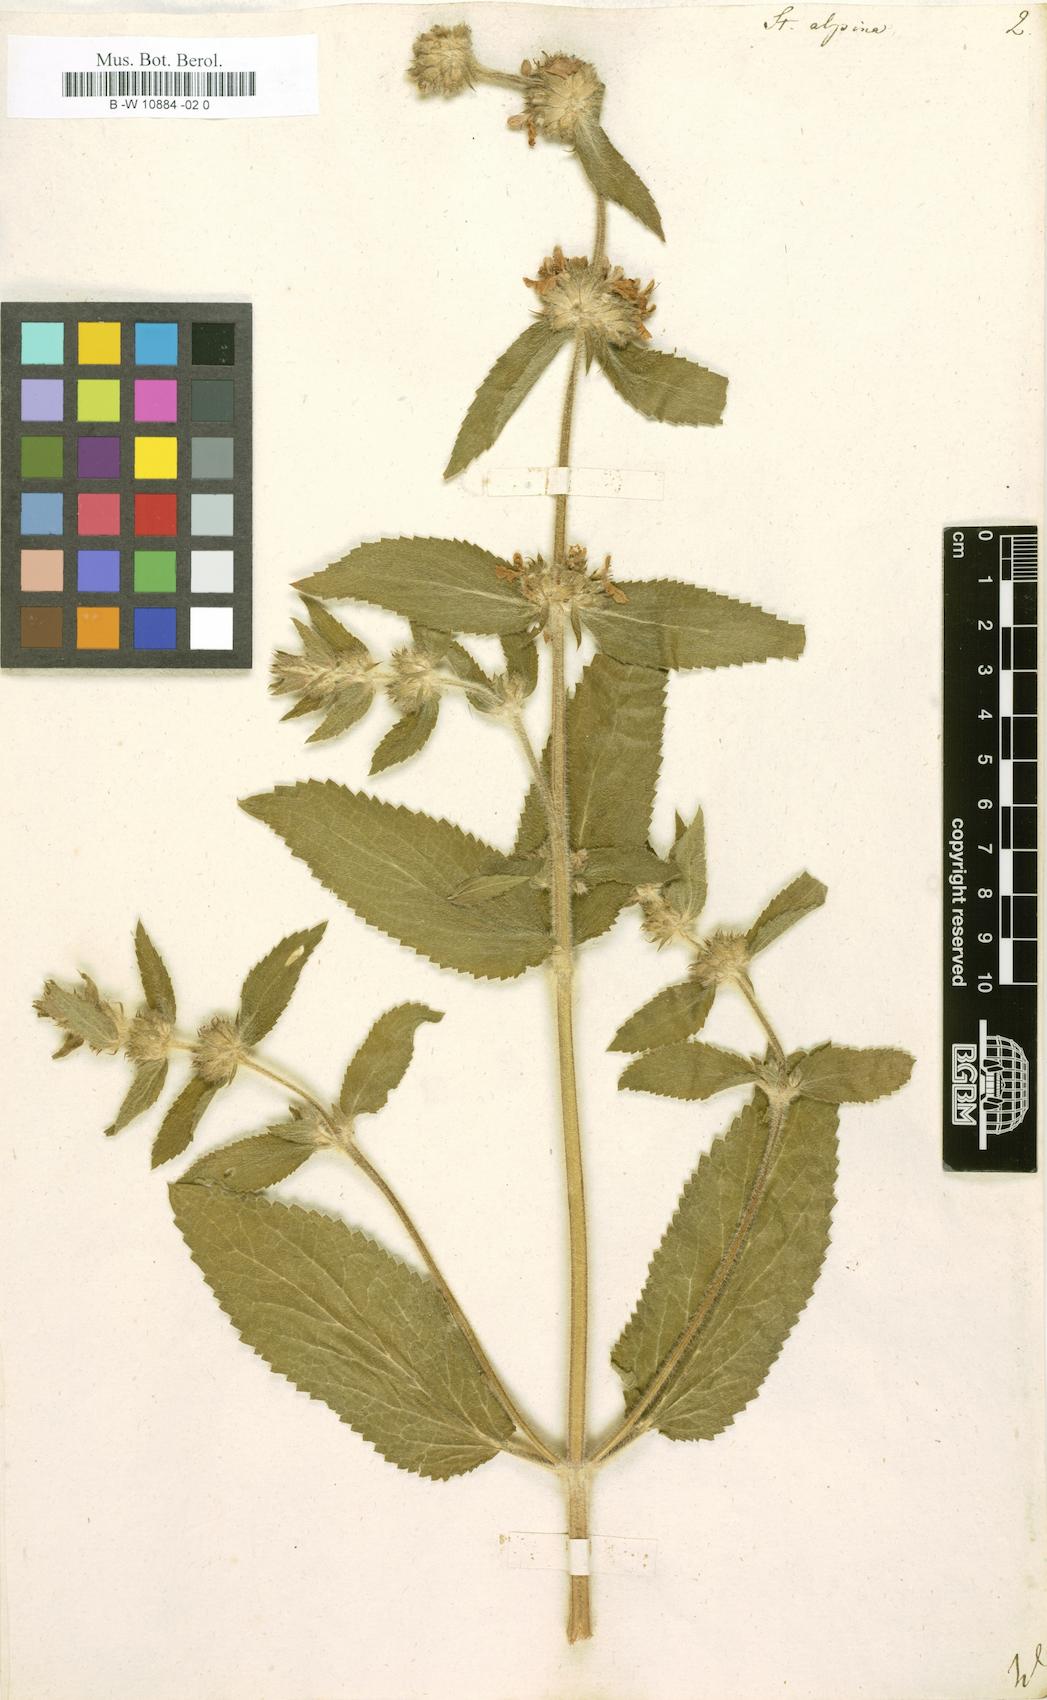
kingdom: Plantae
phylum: Tracheophyta
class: Magnoliopsida
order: Lamiales
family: Lamiaceae
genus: Stachys
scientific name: Stachys alpina
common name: Limestone woundwort
